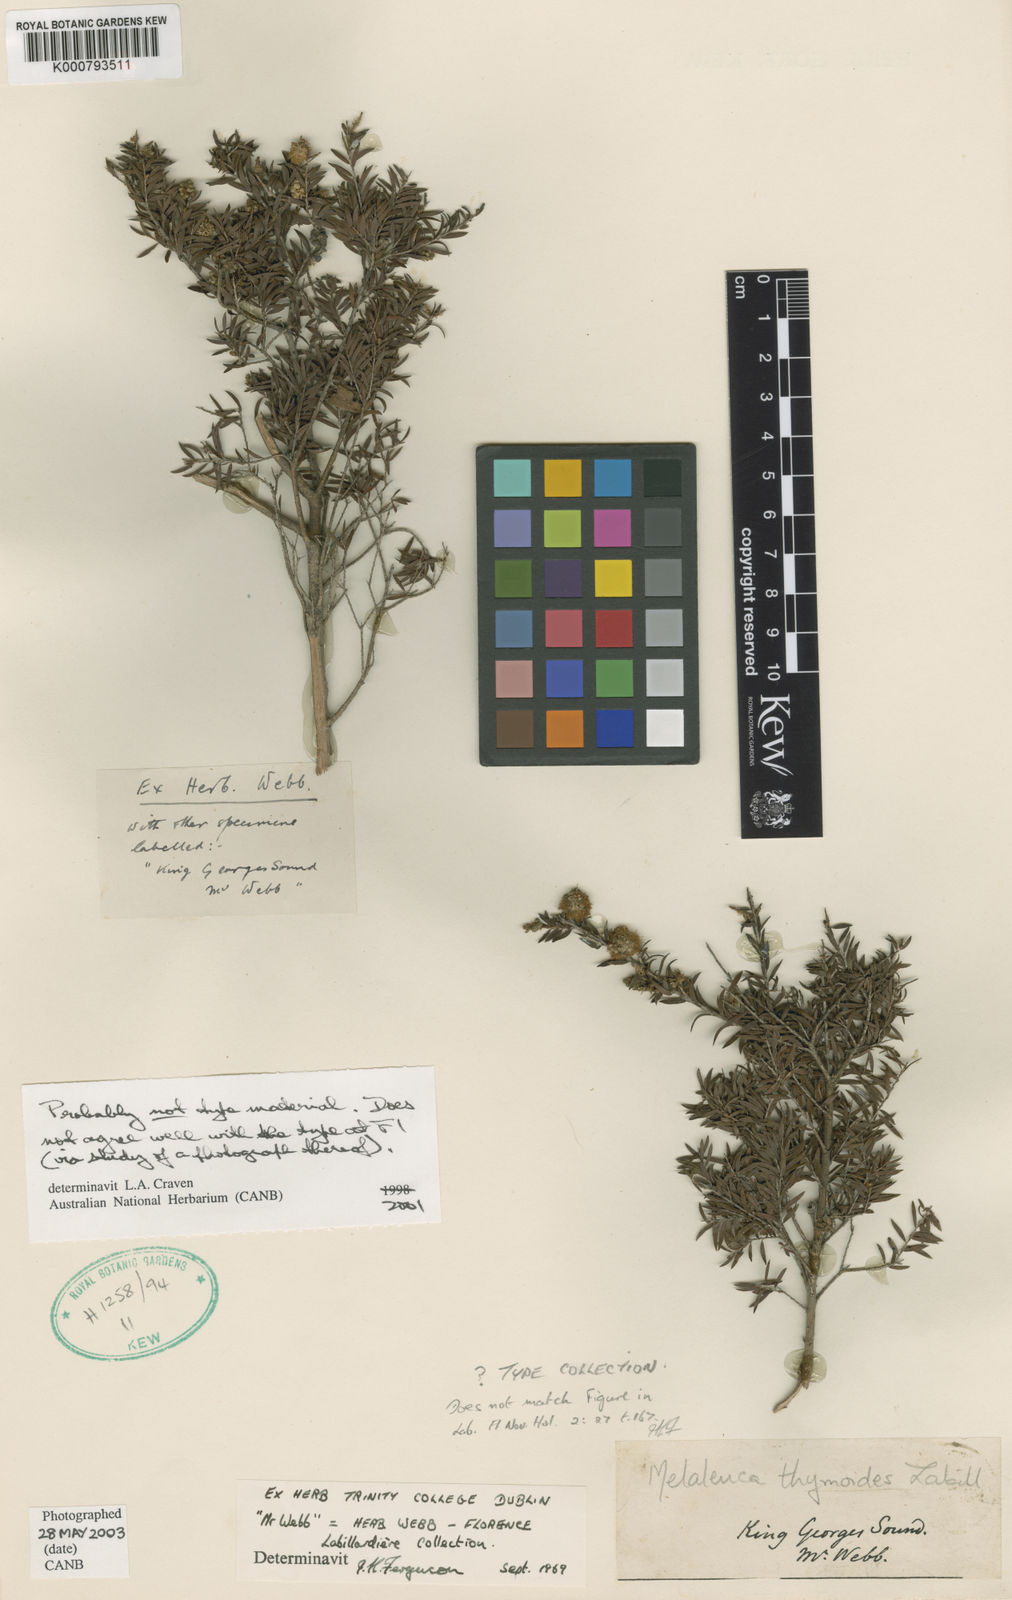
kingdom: Plantae
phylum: Tracheophyta
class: Magnoliopsida
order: Myrtales
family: Myrtaceae
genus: Melaleuca
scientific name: Melaleuca thymoides
